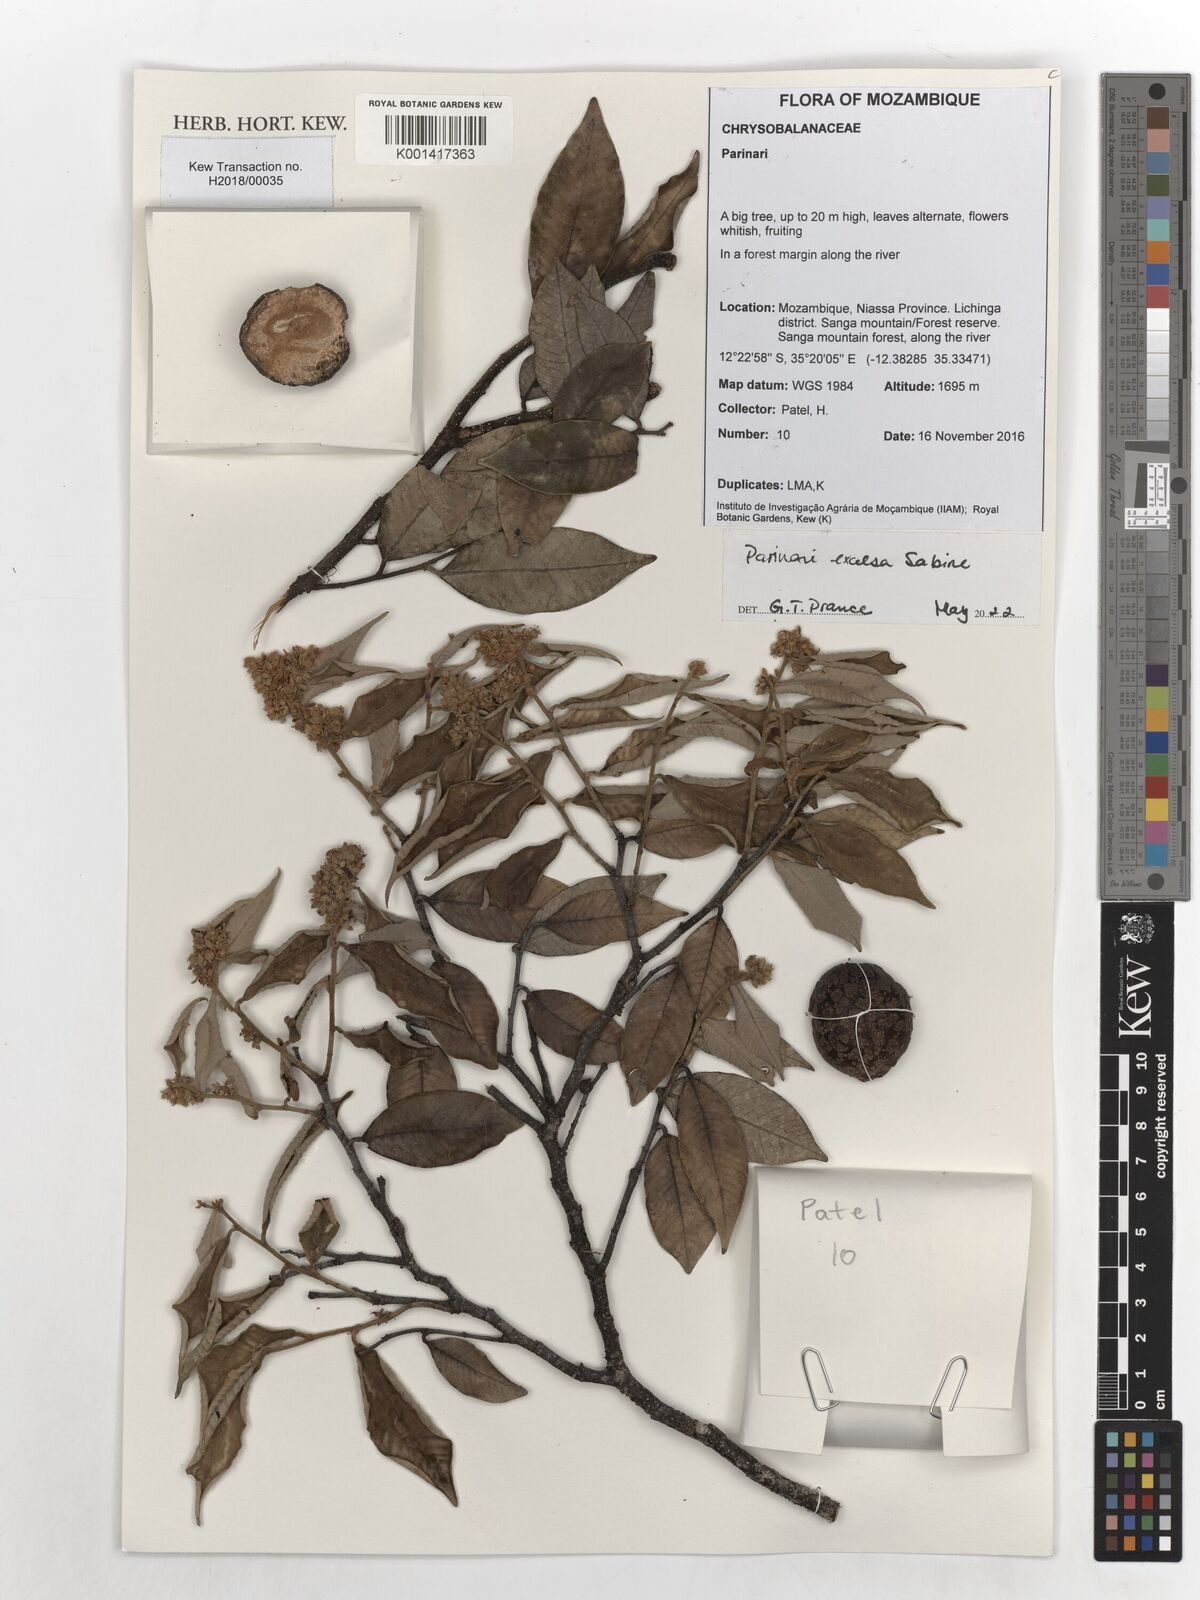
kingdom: Plantae
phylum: Tracheophyta
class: Magnoliopsida
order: Malpighiales
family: Chrysobalanaceae
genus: Parinari
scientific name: Parinari excelsa
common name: Guinea-plum
